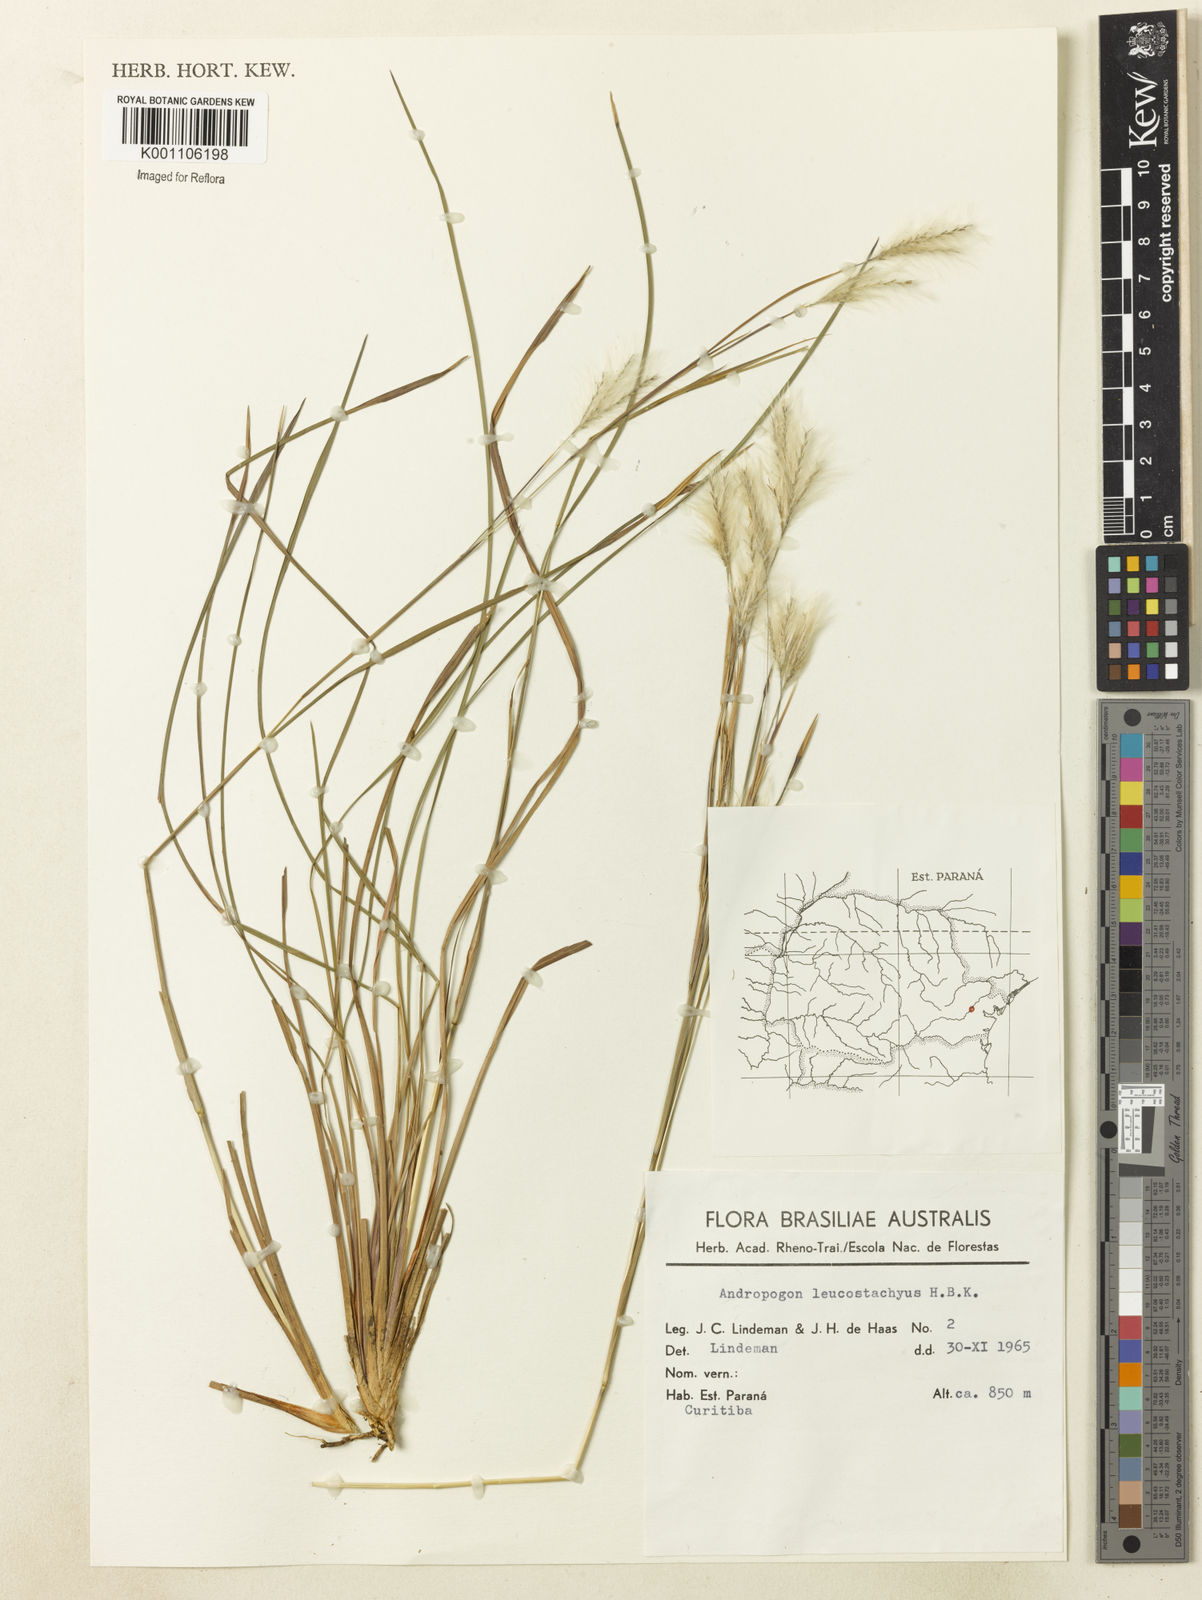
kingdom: Plantae
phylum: Tracheophyta
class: Liliopsida
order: Poales
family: Poaceae
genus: Andropogon
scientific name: Andropogon leucostachyus
